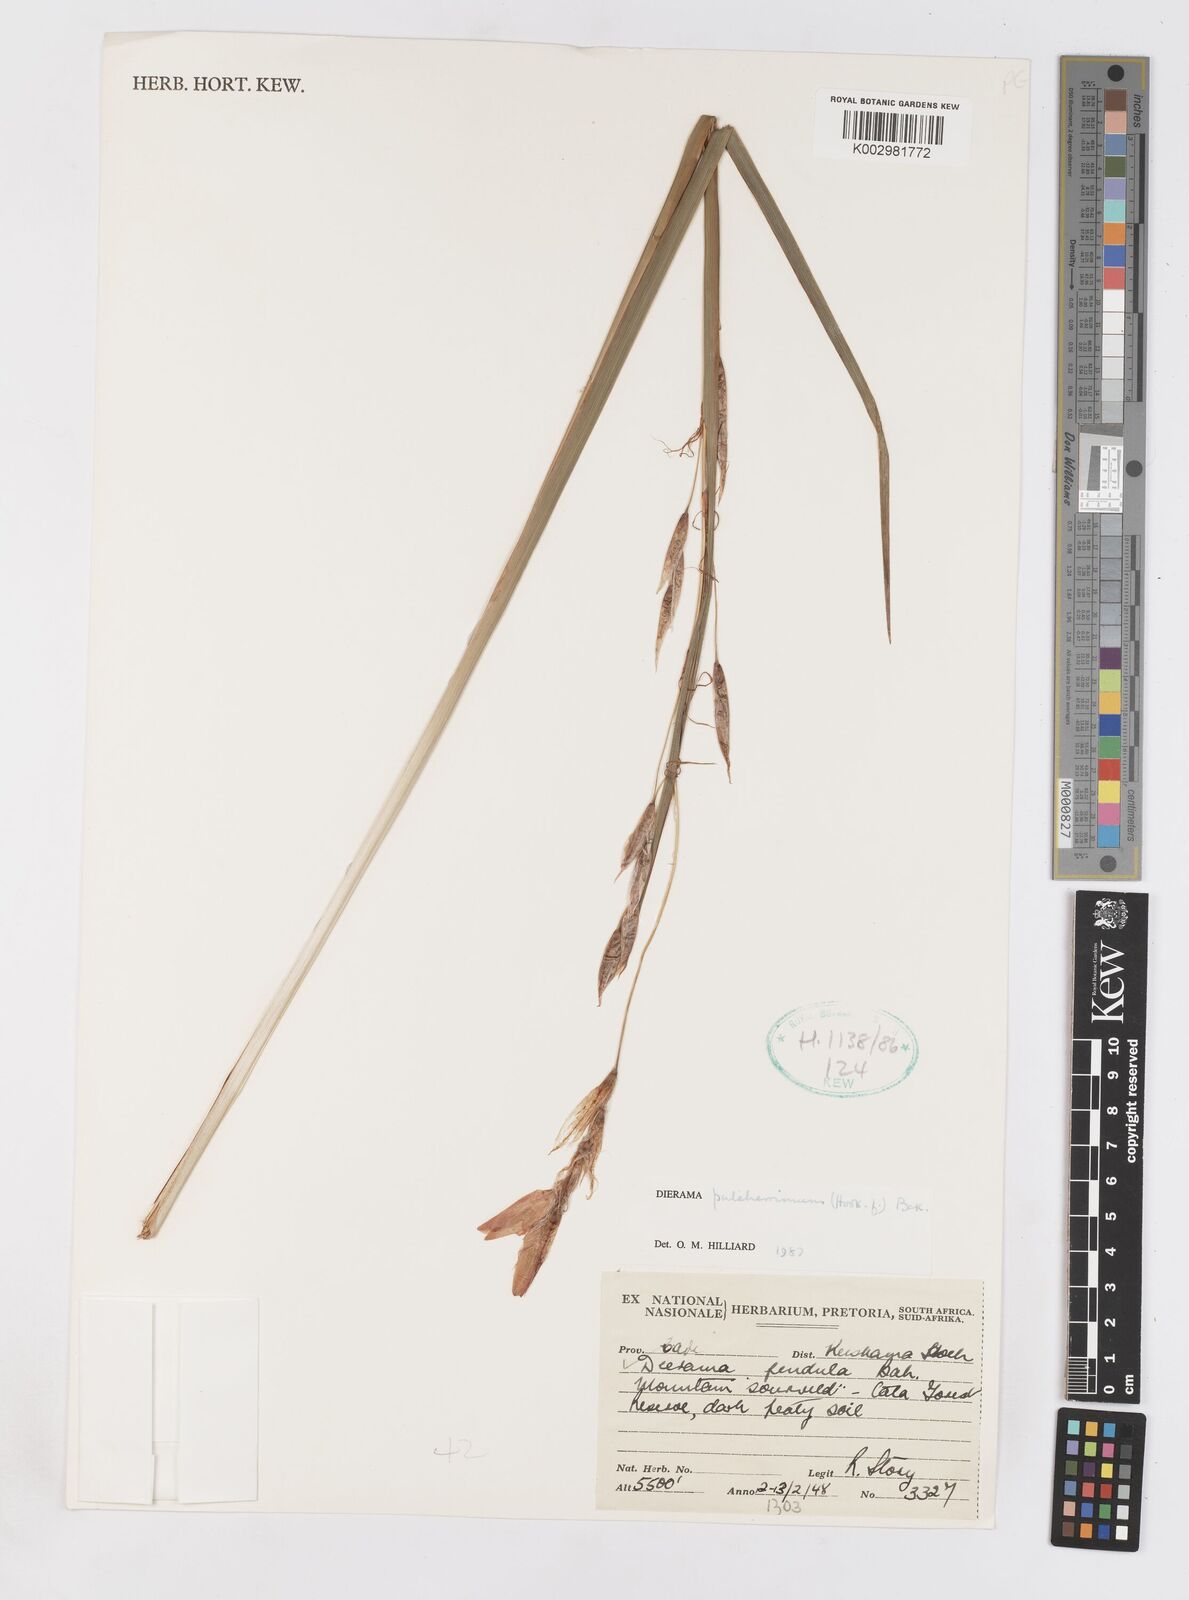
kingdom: Plantae
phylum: Tracheophyta
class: Liliopsida
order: Asparagales
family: Iridaceae
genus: Dierama
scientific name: Dierama pulcherrimum
